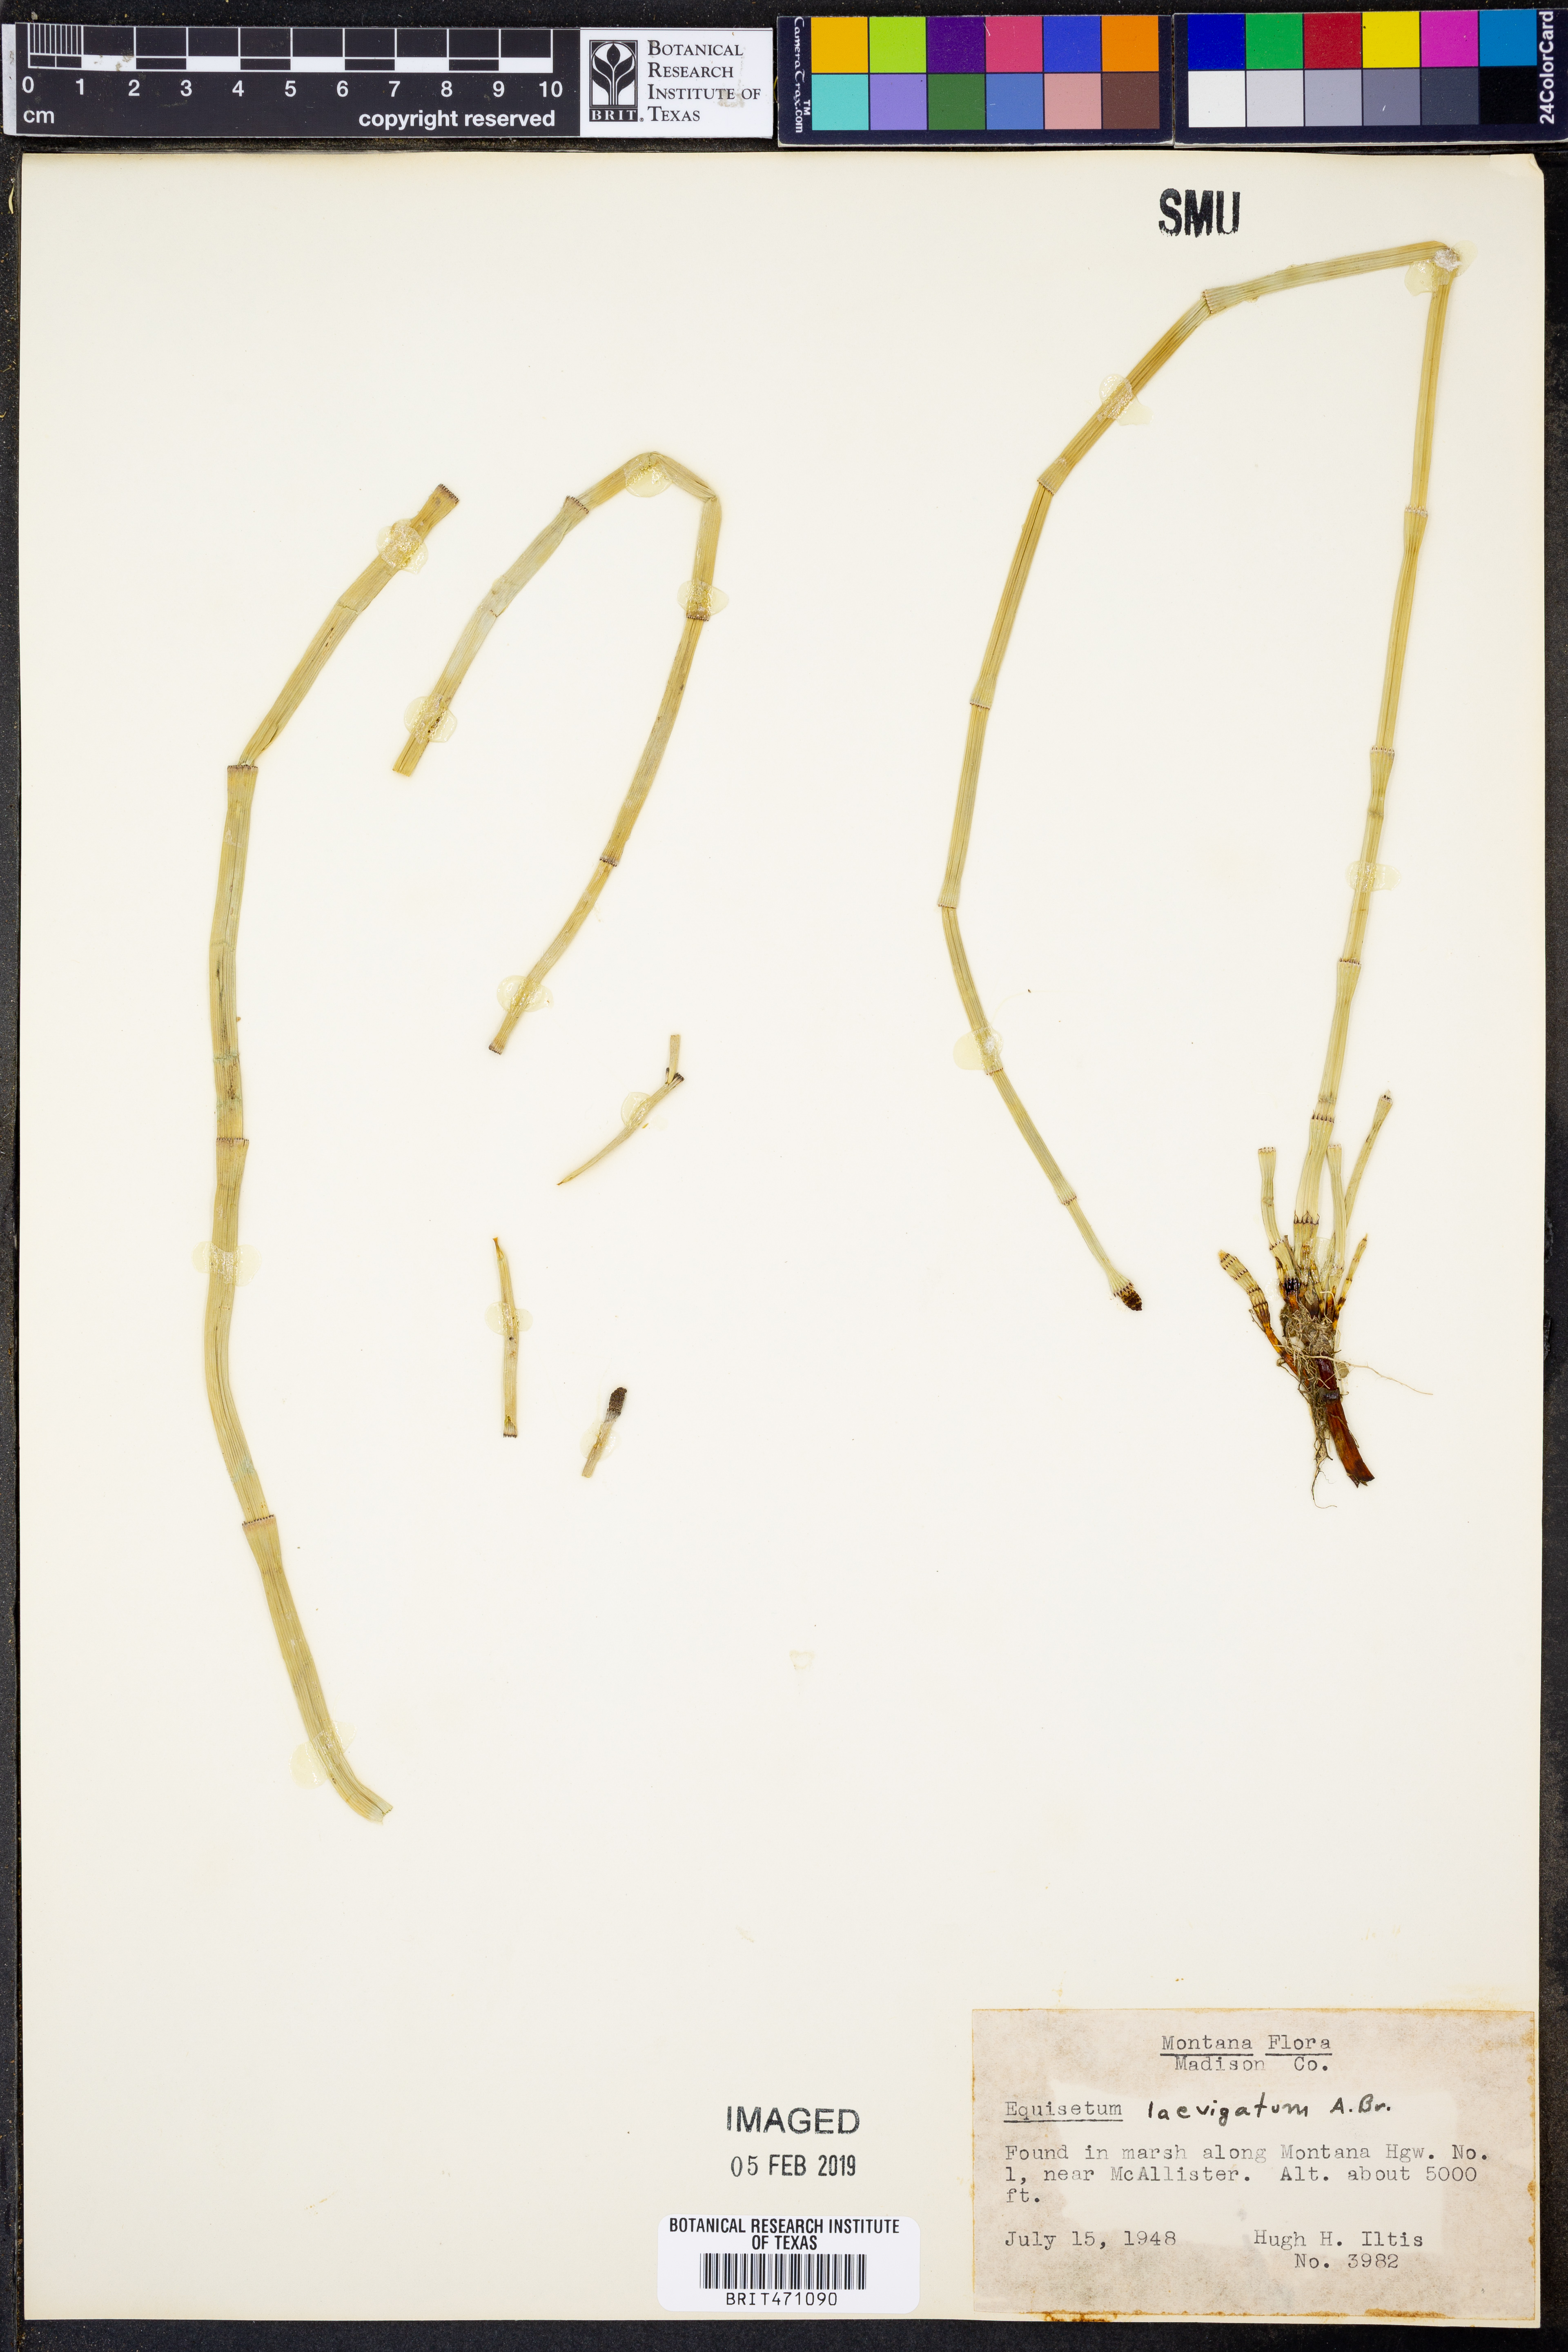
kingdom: Plantae
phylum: Tracheophyta
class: Polypodiopsida
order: Equisetales
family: Equisetaceae
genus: Equisetum
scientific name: Equisetum laevigatum
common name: Smooth scouring-rush
